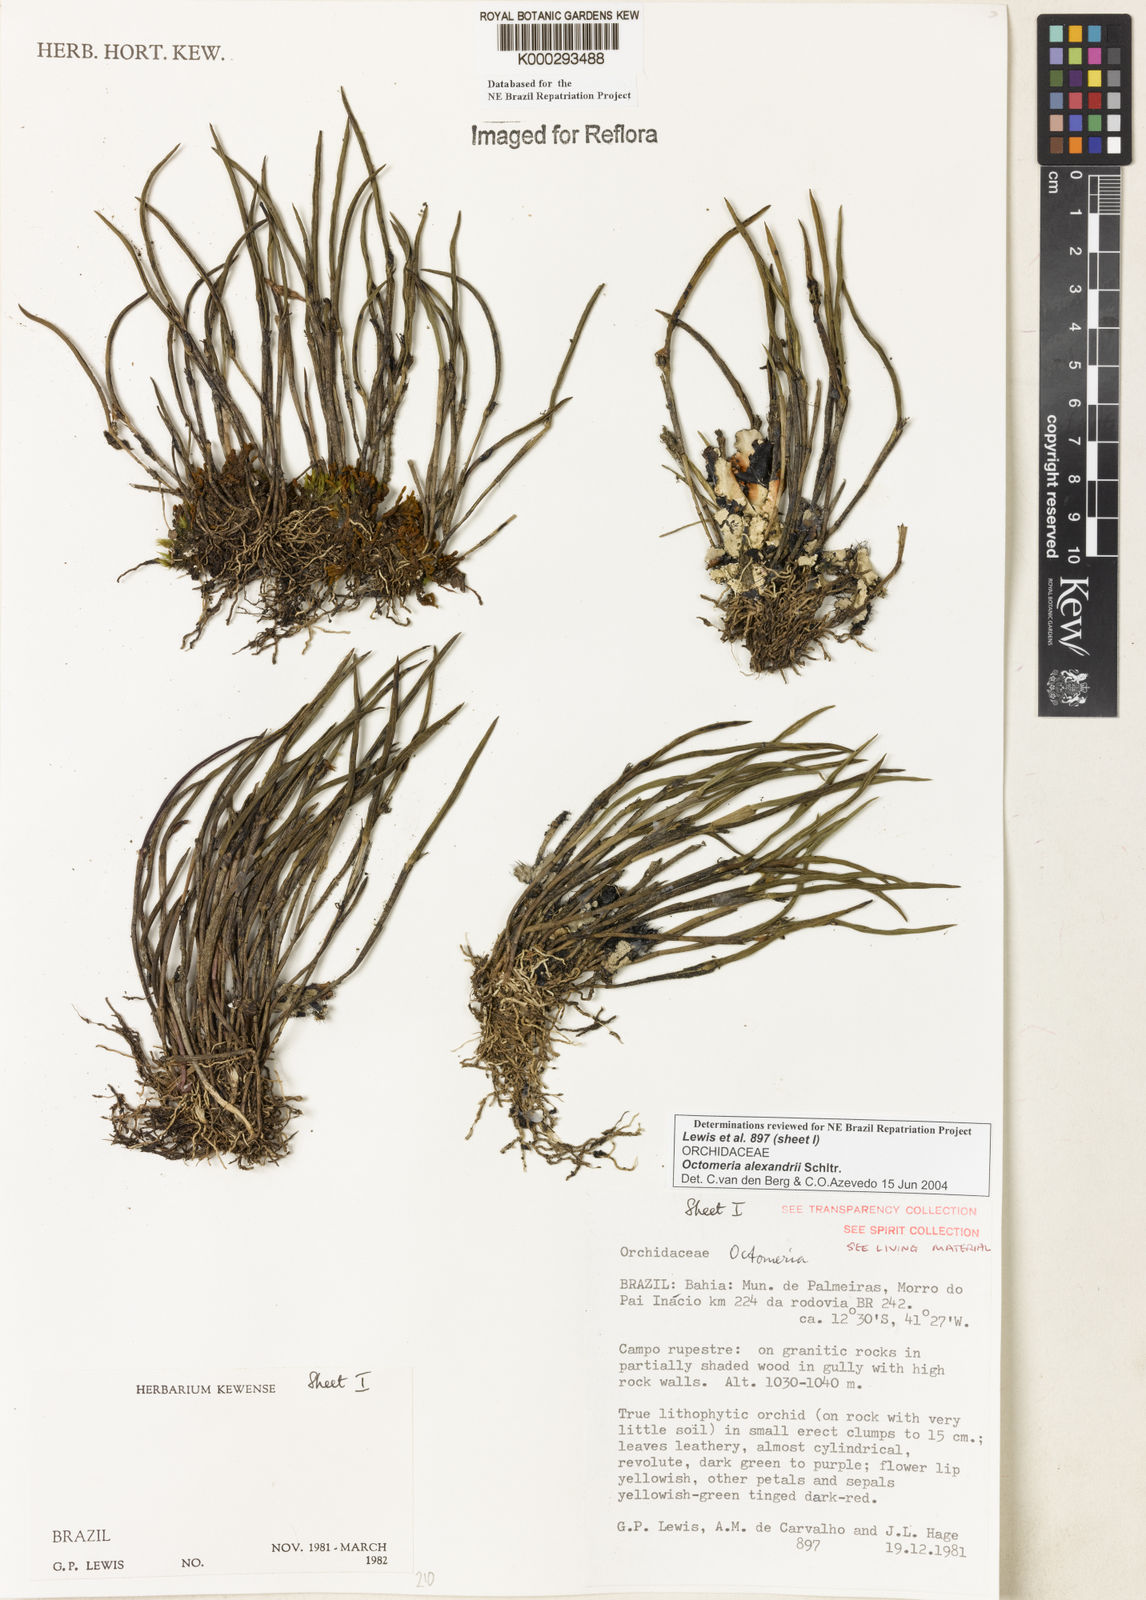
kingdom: Plantae
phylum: Tracheophyta
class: Liliopsida
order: Asparagales
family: Orchidaceae
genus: Octomeria
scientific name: Octomeria alexandri
